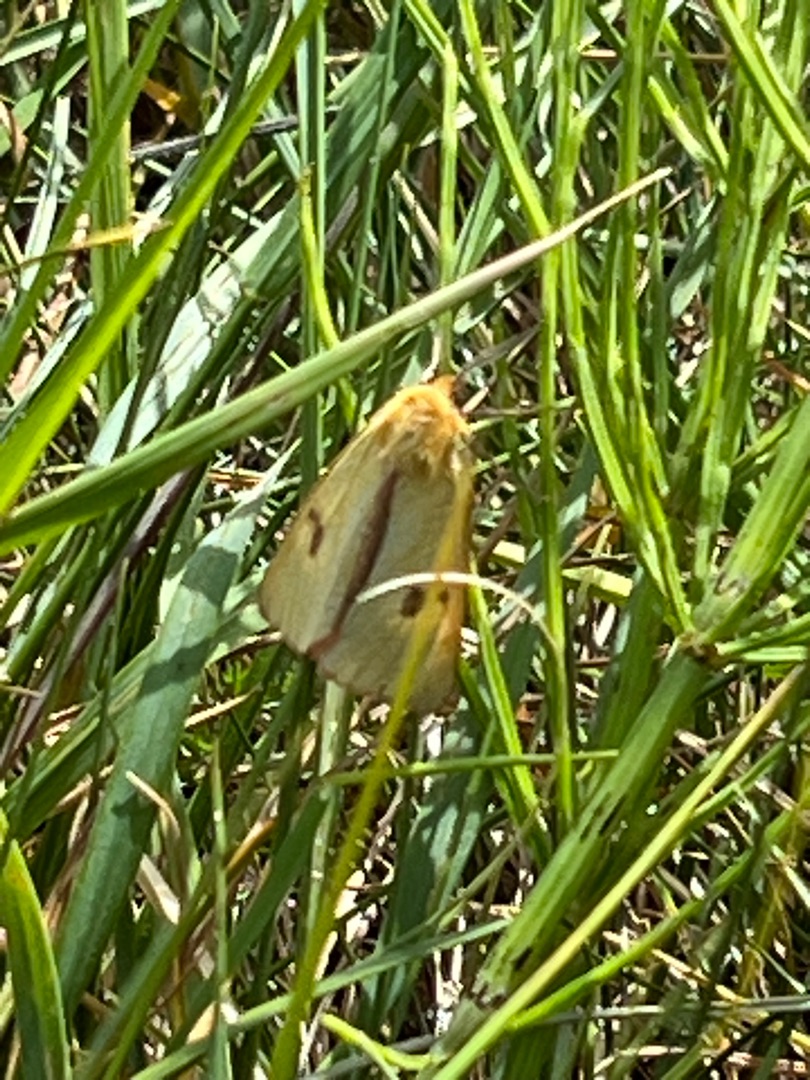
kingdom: Animalia
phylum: Arthropoda
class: Insecta
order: Lepidoptera
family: Erebidae
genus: Diacrisia
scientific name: Diacrisia sannio
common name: Rødfrynset bjørn
